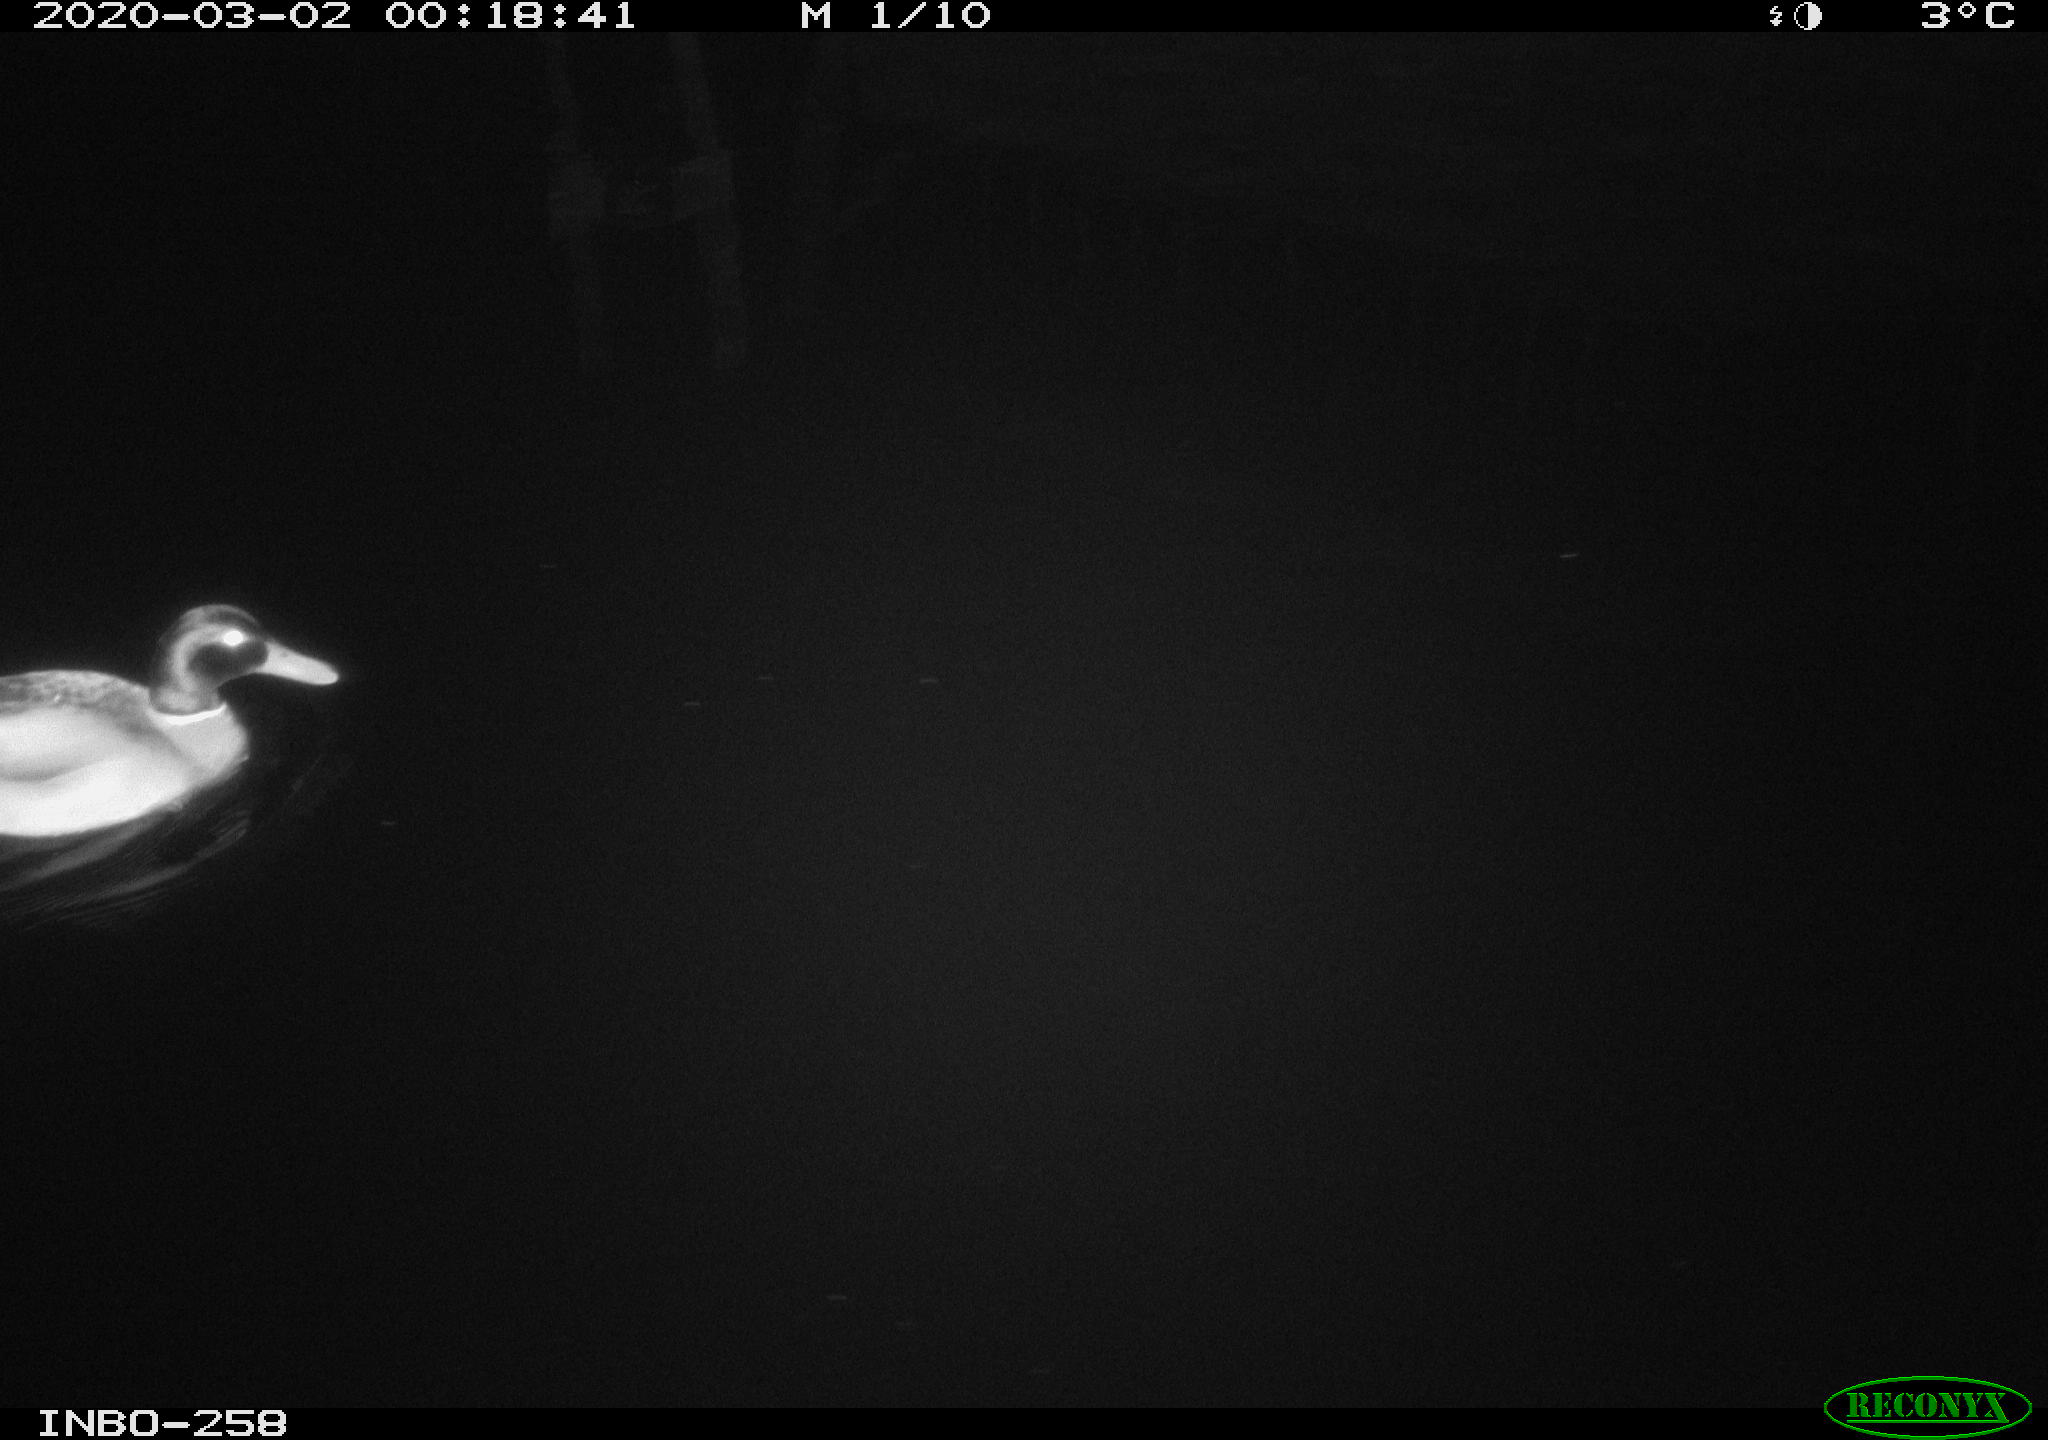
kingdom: Animalia
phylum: Chordata
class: Aves
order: Anseriformes
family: Anatidae
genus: Anas
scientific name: Anas platyrhynchos
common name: Mallard
